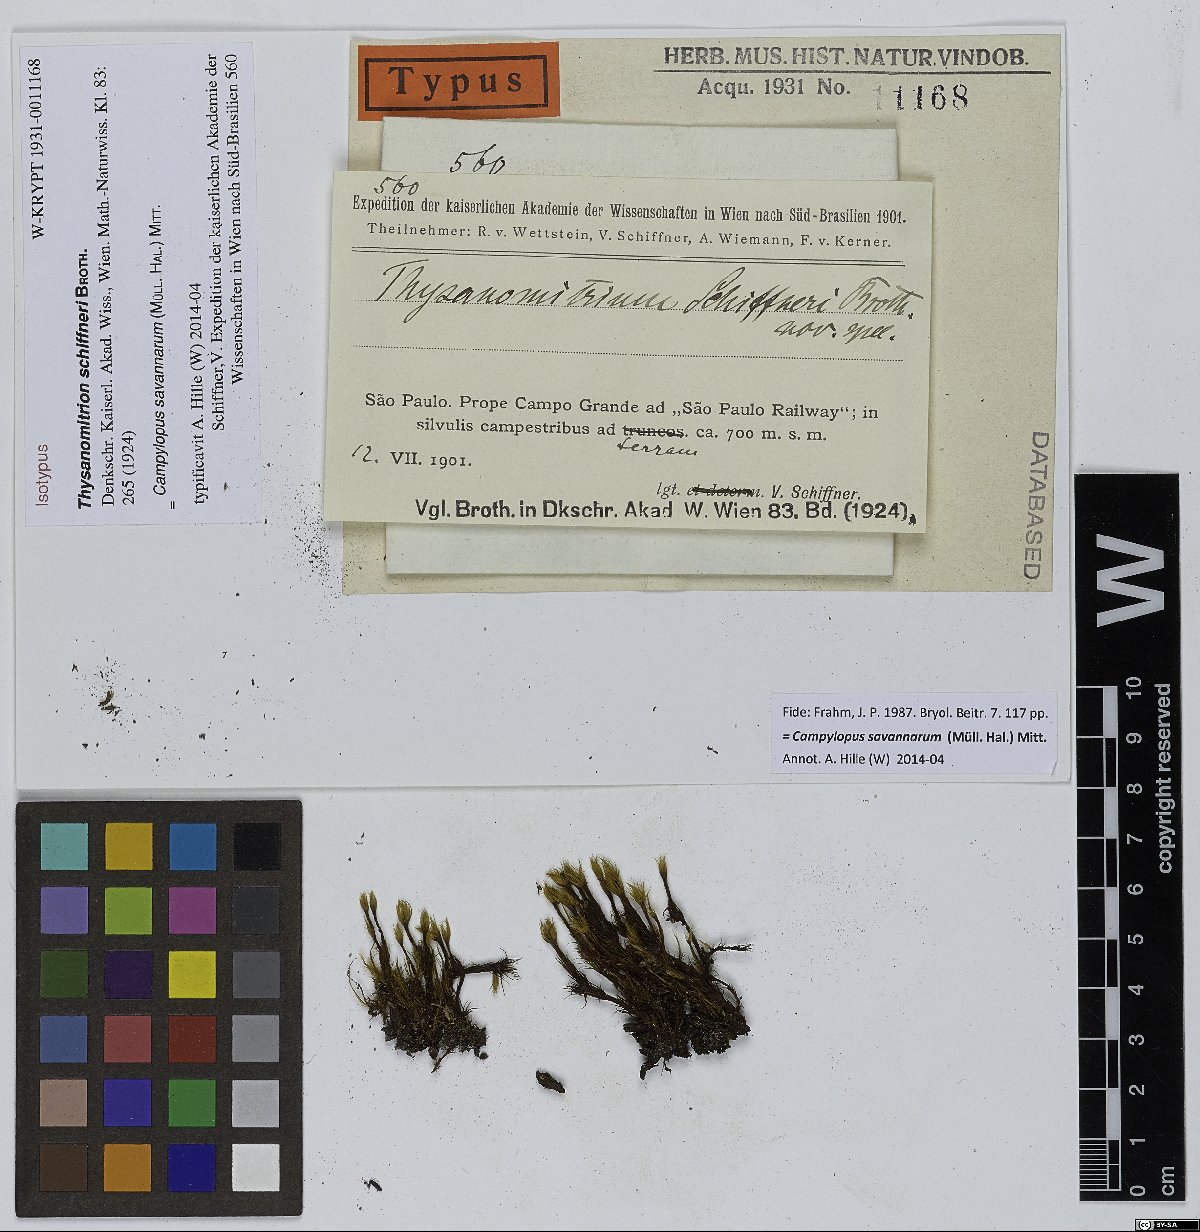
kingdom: Plantae
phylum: Bryophyta
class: Bryopsida
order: Dicranales
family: Leucobryaceae
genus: Campylopus
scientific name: Campylopus savannarum
